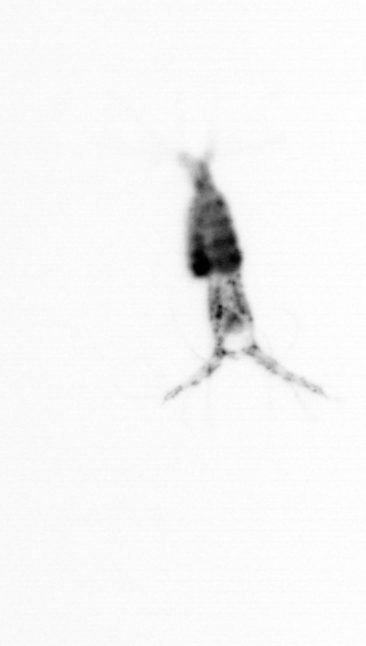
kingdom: Animalia
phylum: Arthropoda
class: Copepoda
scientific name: Copepoda
